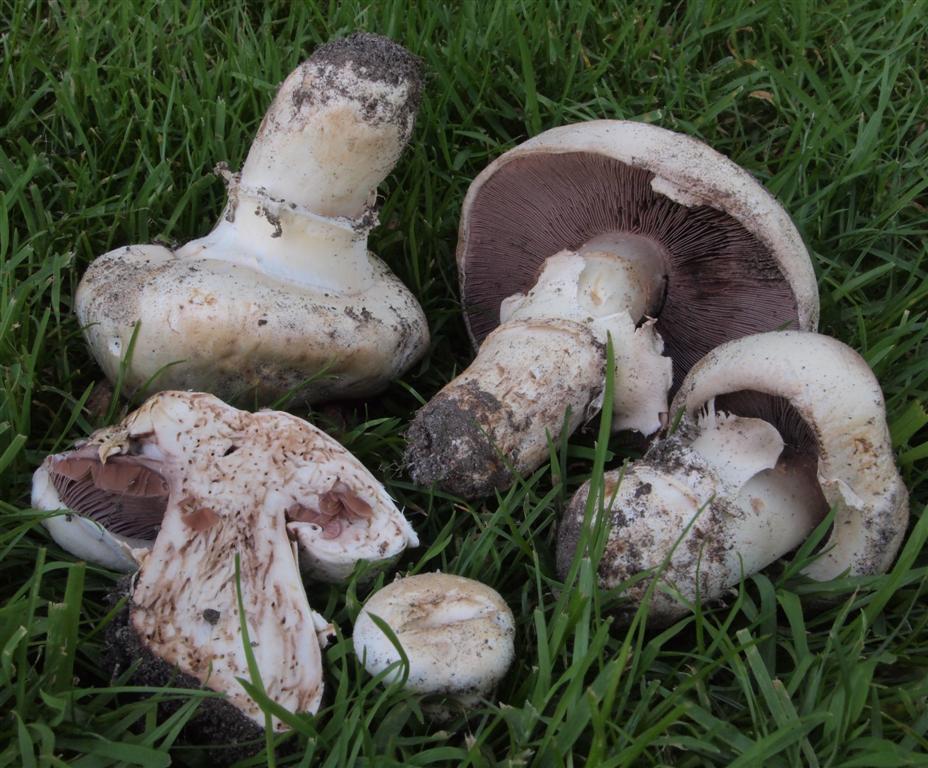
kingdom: Fungi
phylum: Basidiomycota
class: Agaricomycetes
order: Agaricales
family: Agaricaceae
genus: Agaricus
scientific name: Agaricus bitorquis
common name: vej-champignon
